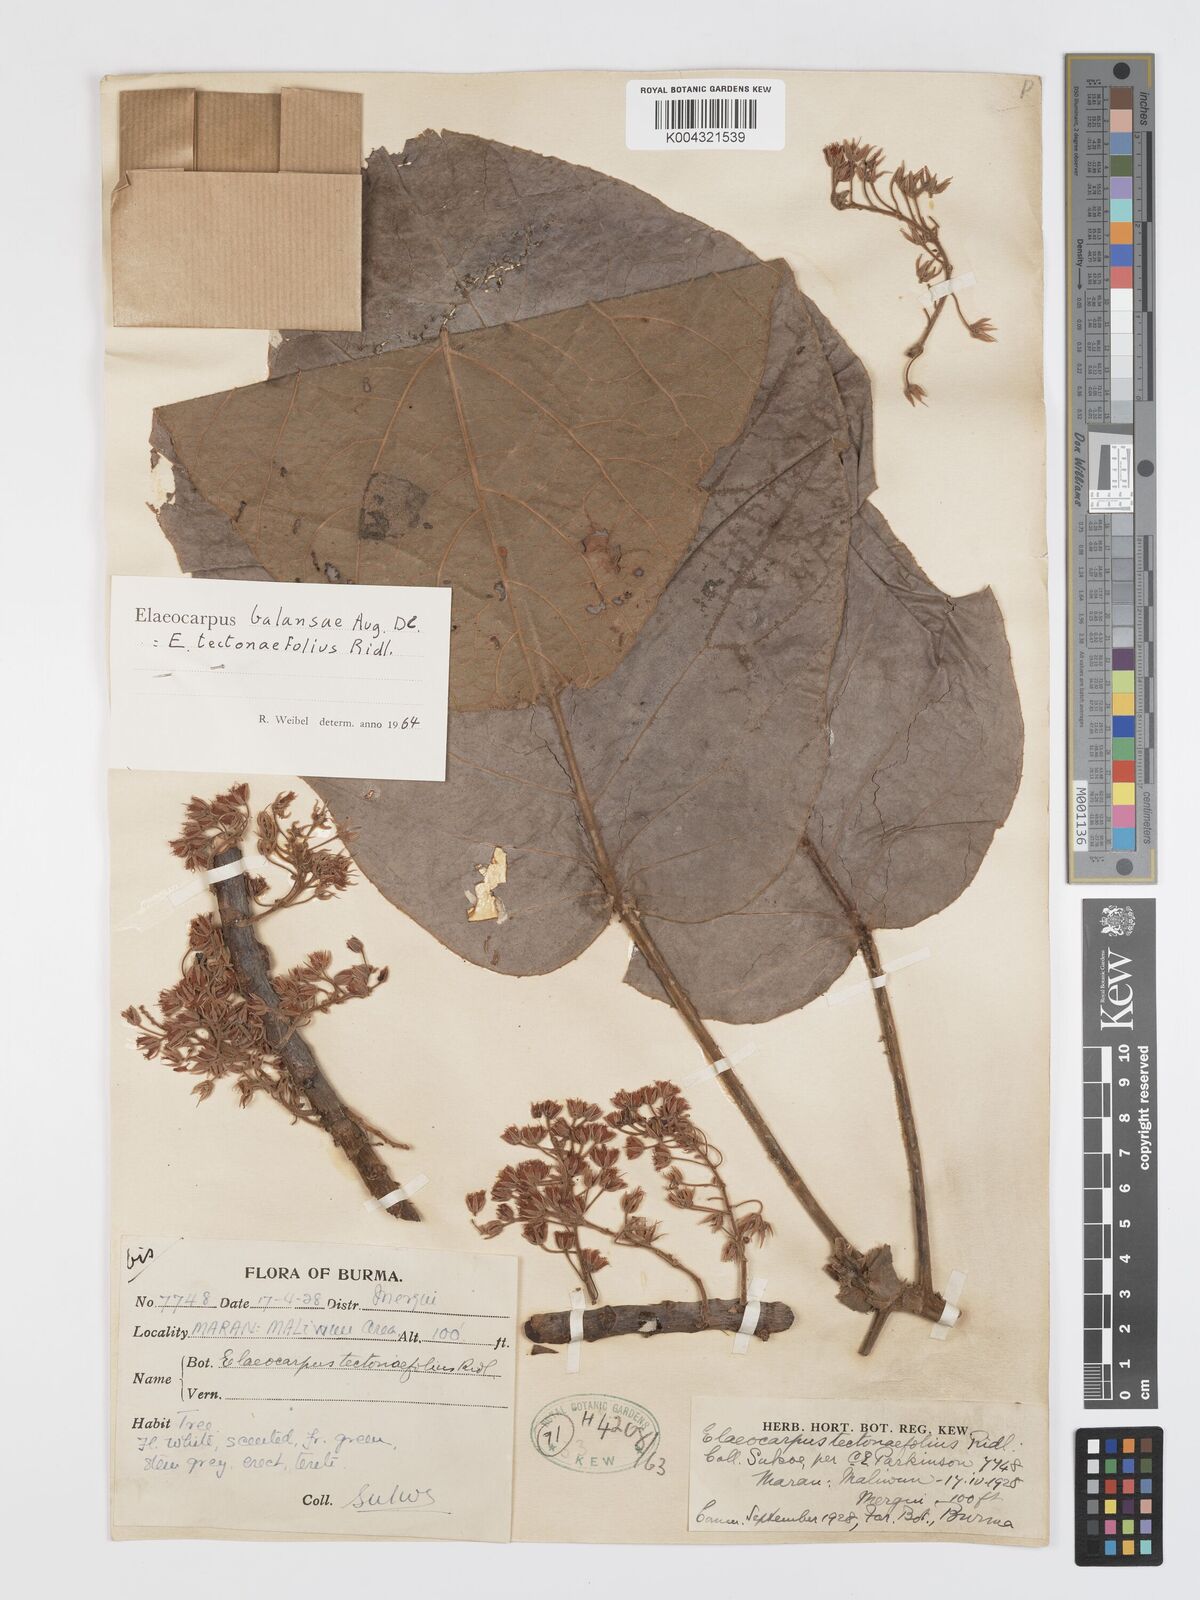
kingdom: Plantae
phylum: Tracheophyta
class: Magnoliopsida
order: Oxalidales
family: Elaeocarpaceae
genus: Elaeocarpus
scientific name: Elaeocarpus balansae
